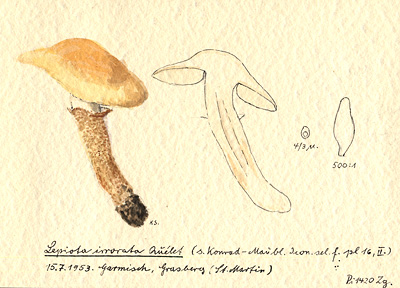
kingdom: Fungi
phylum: Basidiomycota
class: Agaricomycetes
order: Agaricales
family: Agaricaceae
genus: Chamaemyces
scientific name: Chamaemyces fracidus
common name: Dewdrop dapperling
